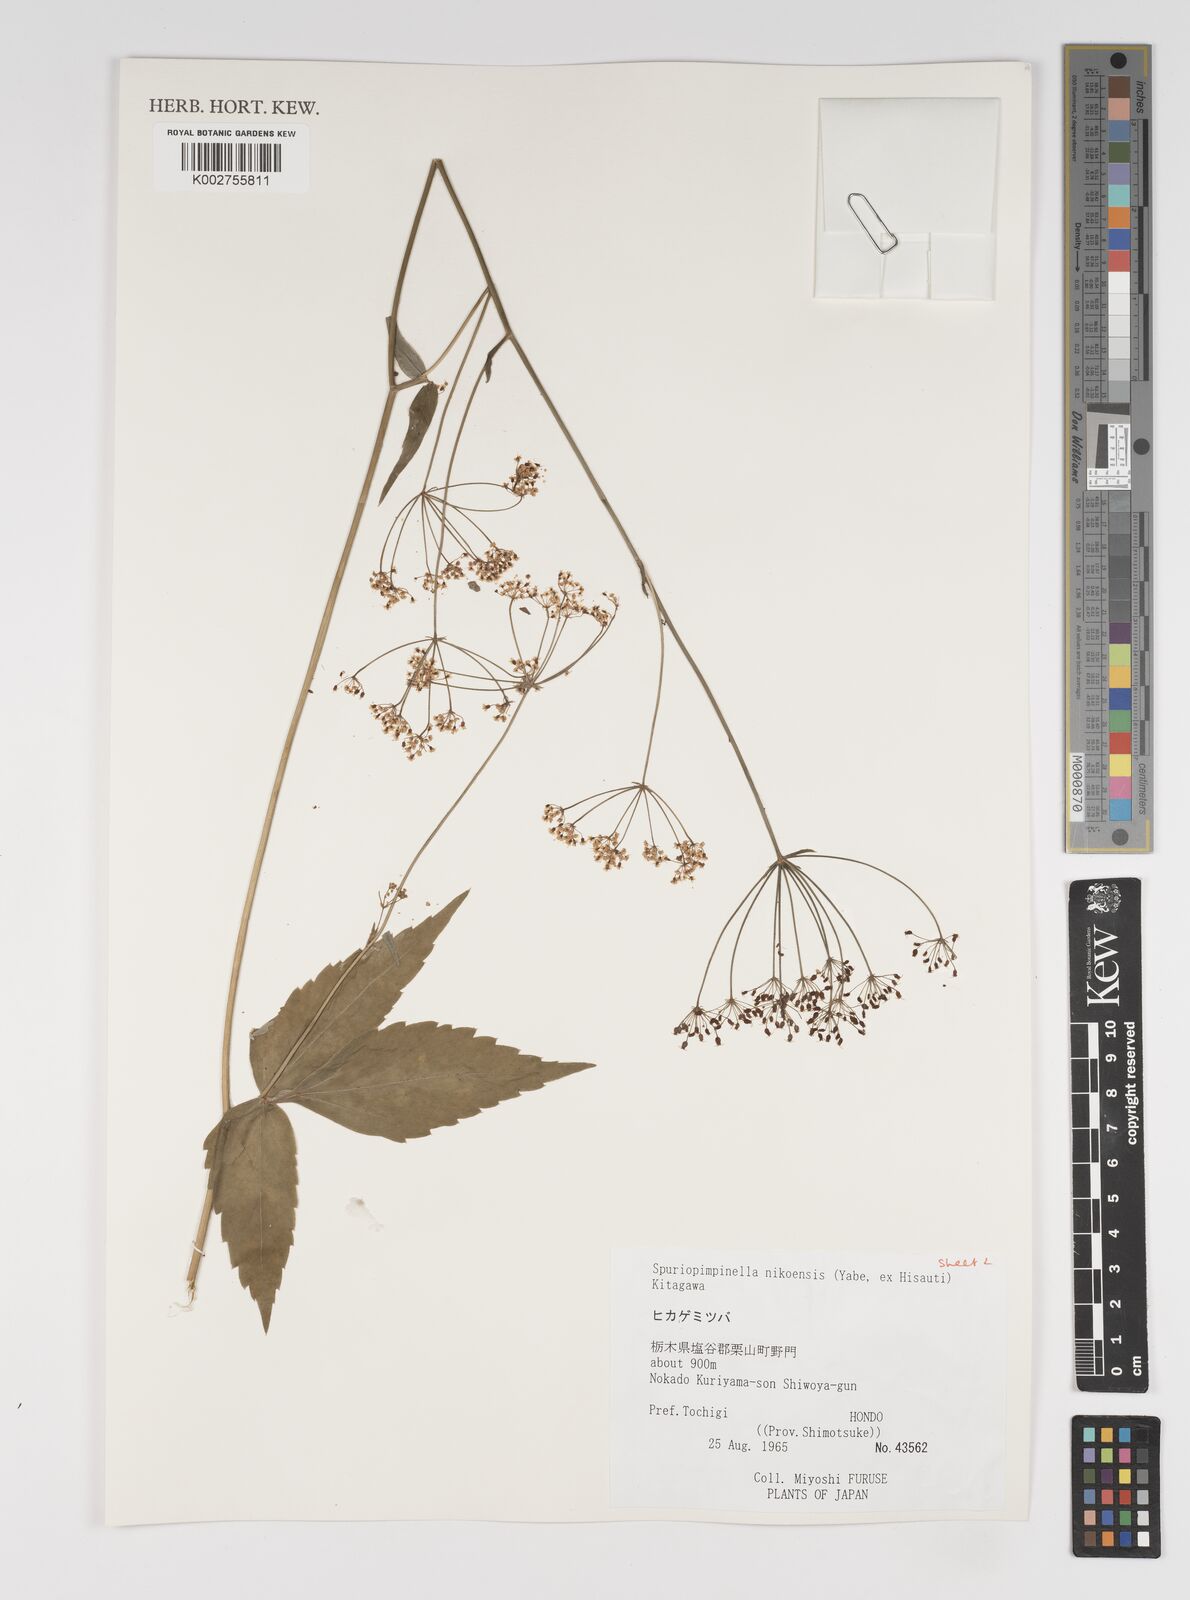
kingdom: Plantae
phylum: Tracheophyta
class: Magnoliopsida
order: Apiales
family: Apiaceae
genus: Spuriopimpinella
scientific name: Spuriopimpinella brachycarpa
